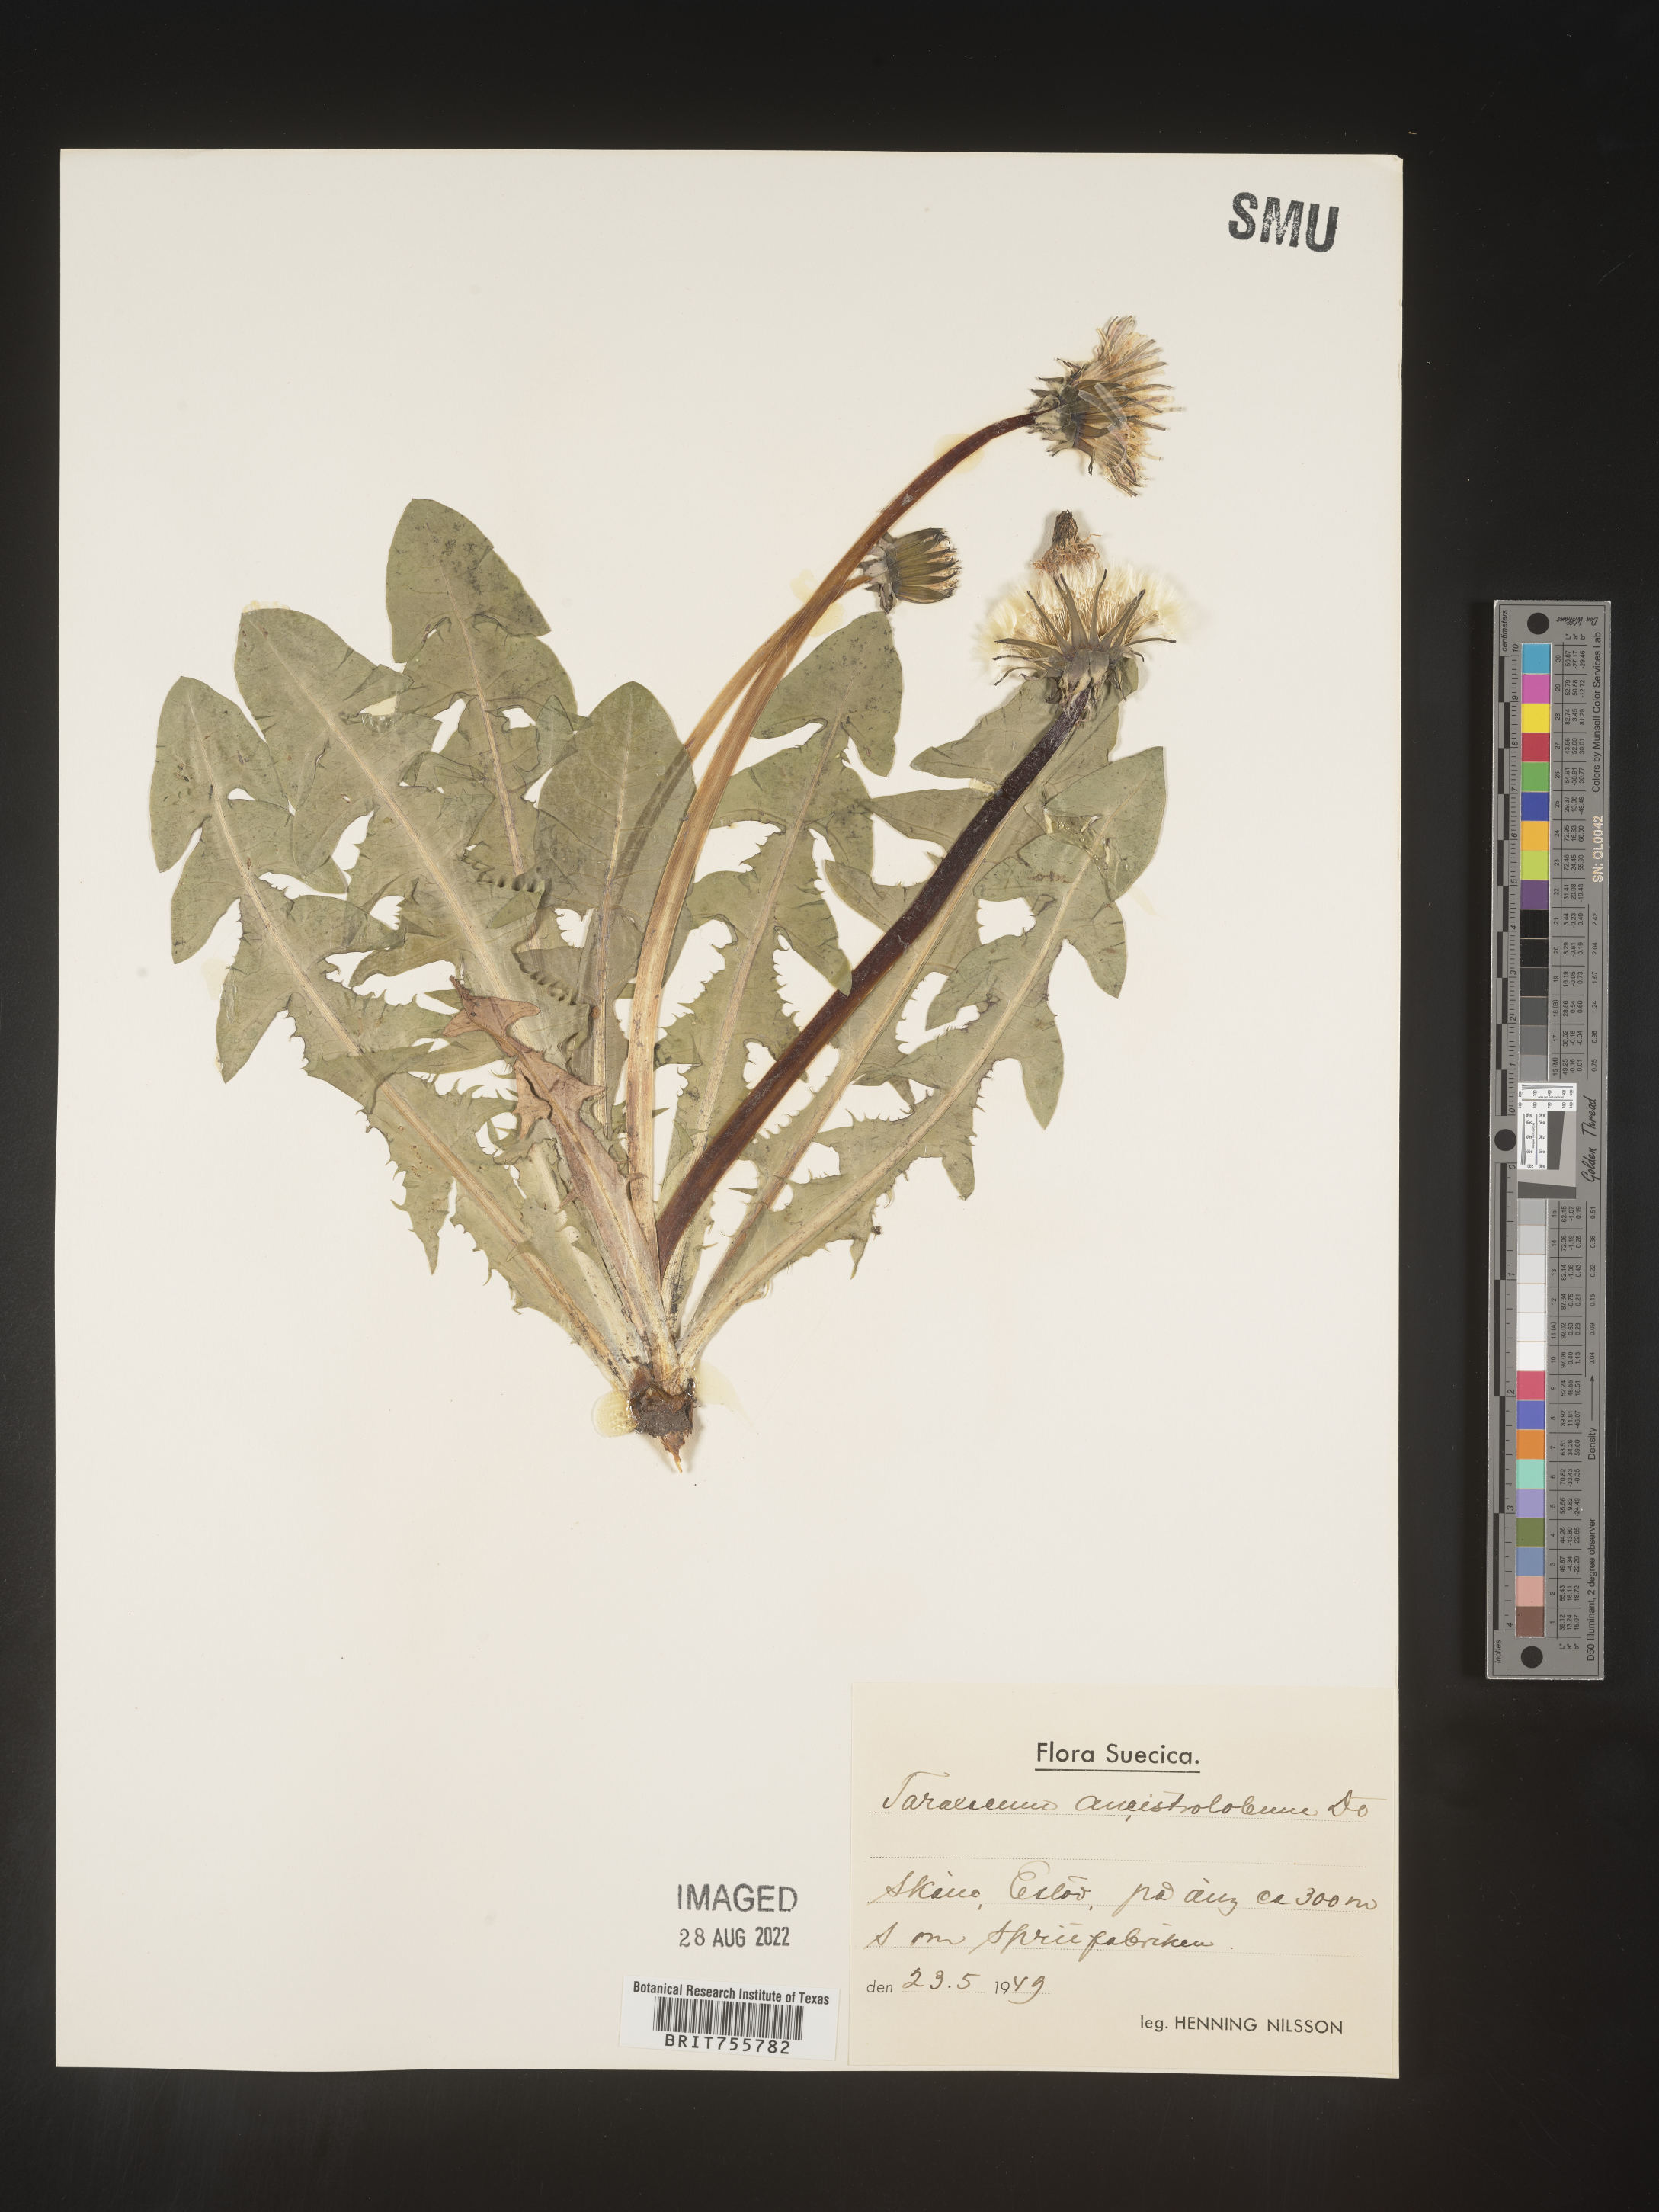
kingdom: Plantae
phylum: Tracheophyta
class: Magnoliopsida
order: Asterales
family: Asteraceae
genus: Taraxacum
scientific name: Taraxacum
